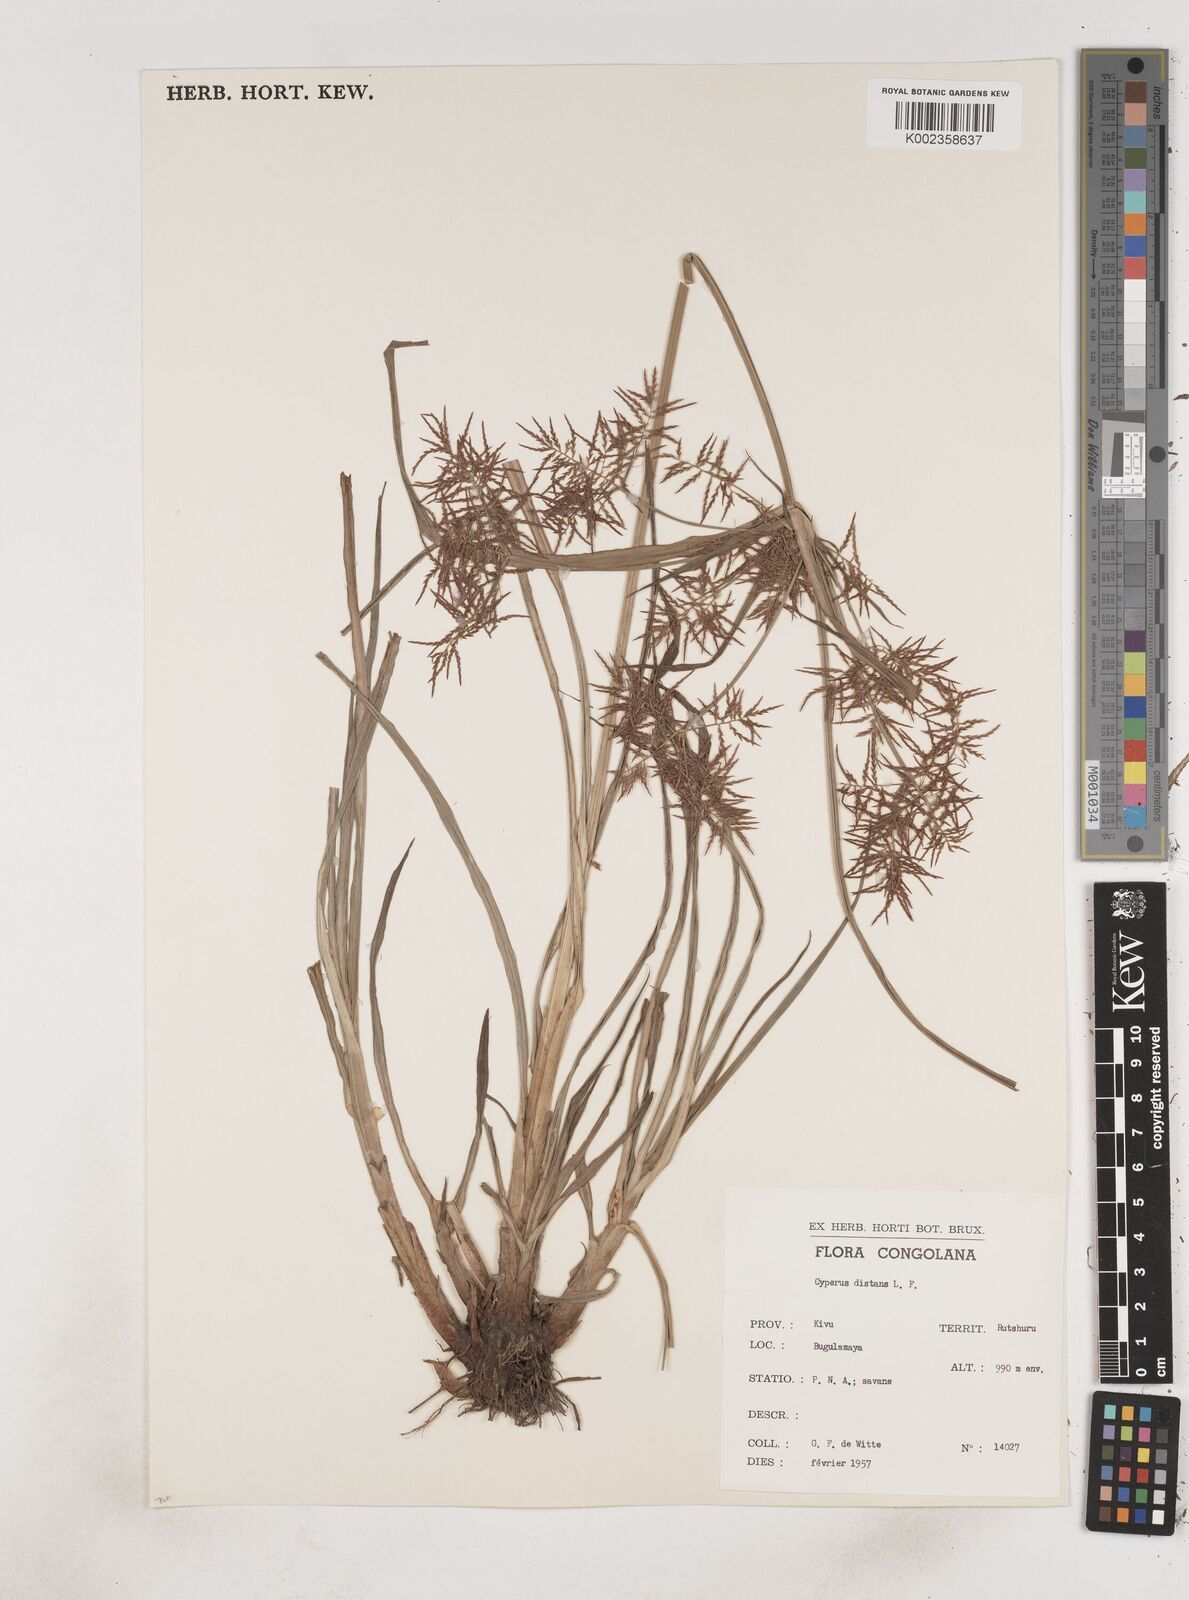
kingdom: Plantae
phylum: Tracheophyta
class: Liliopsida
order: Poales
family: Cyperaceae
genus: Cyperus
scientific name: Cyperus distans
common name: Slender cyperus
